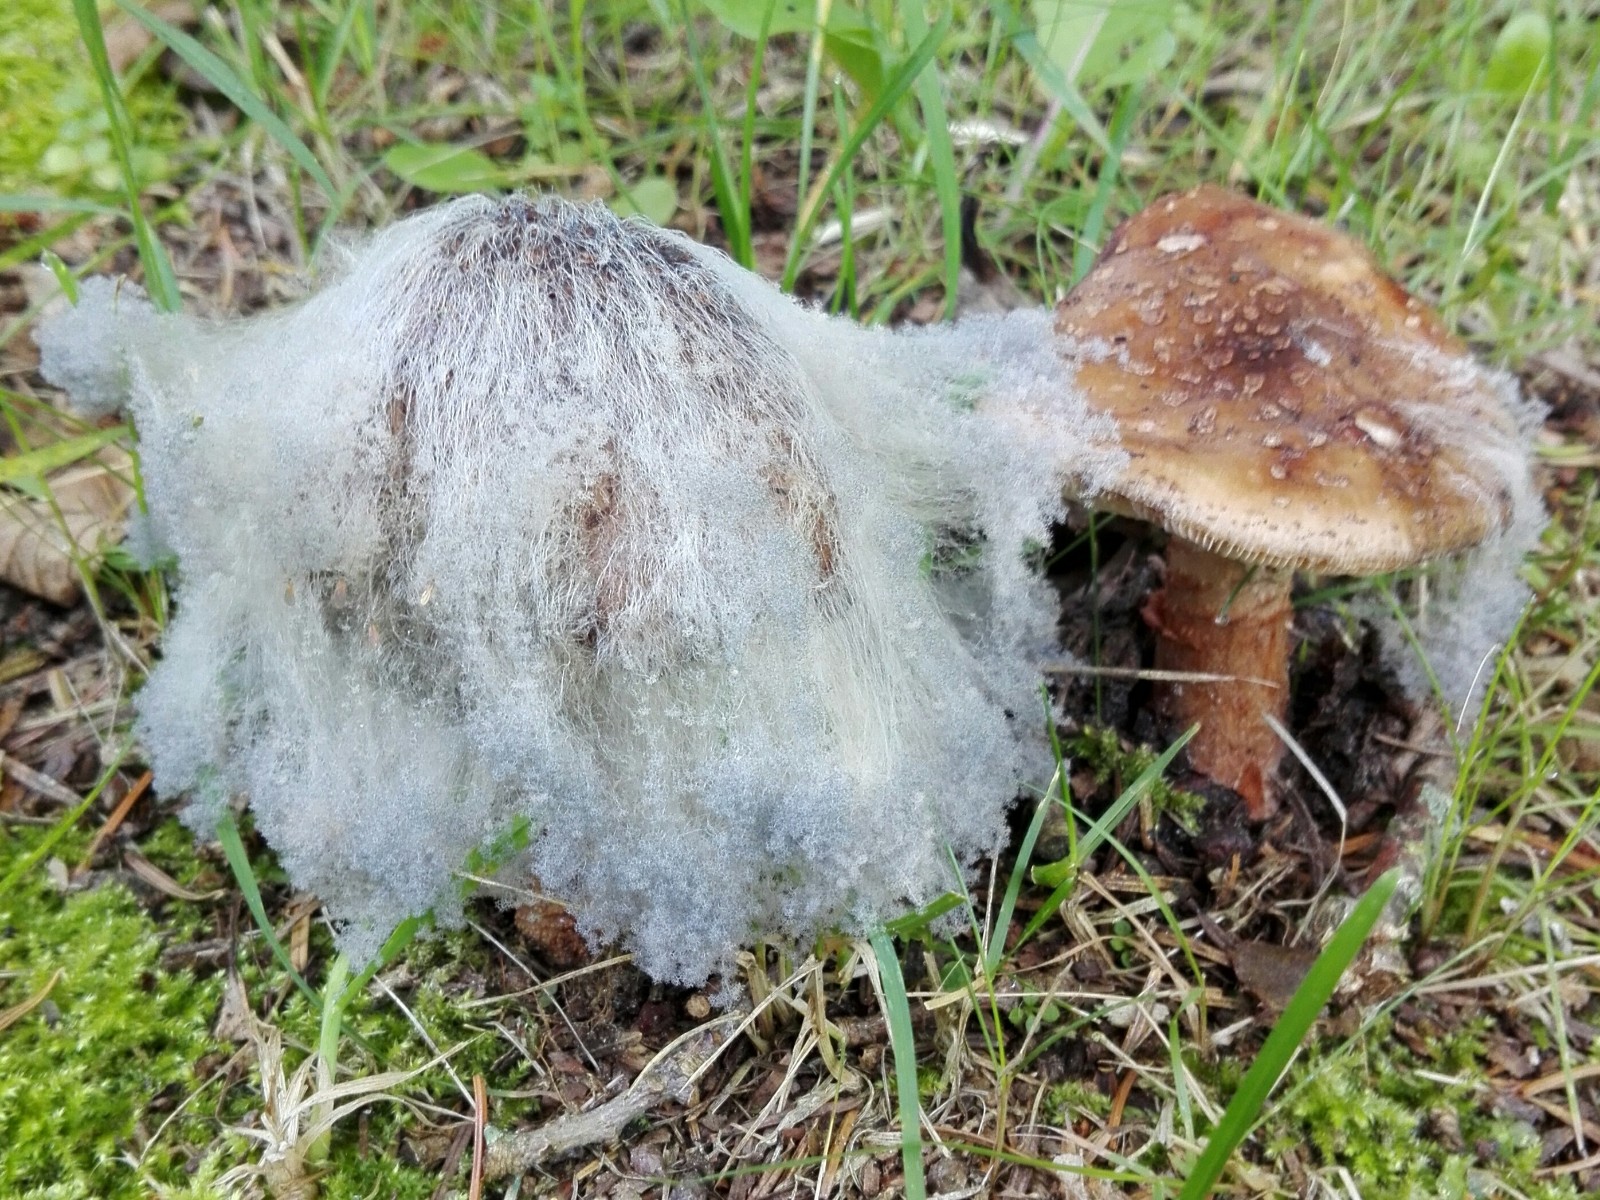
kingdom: Fungi
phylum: Mucoromycota
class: Mucoromycetes
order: Mucorales
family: Rhizopodaceae
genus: Syzygites
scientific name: Syzygites megalocarpus
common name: nissenål
